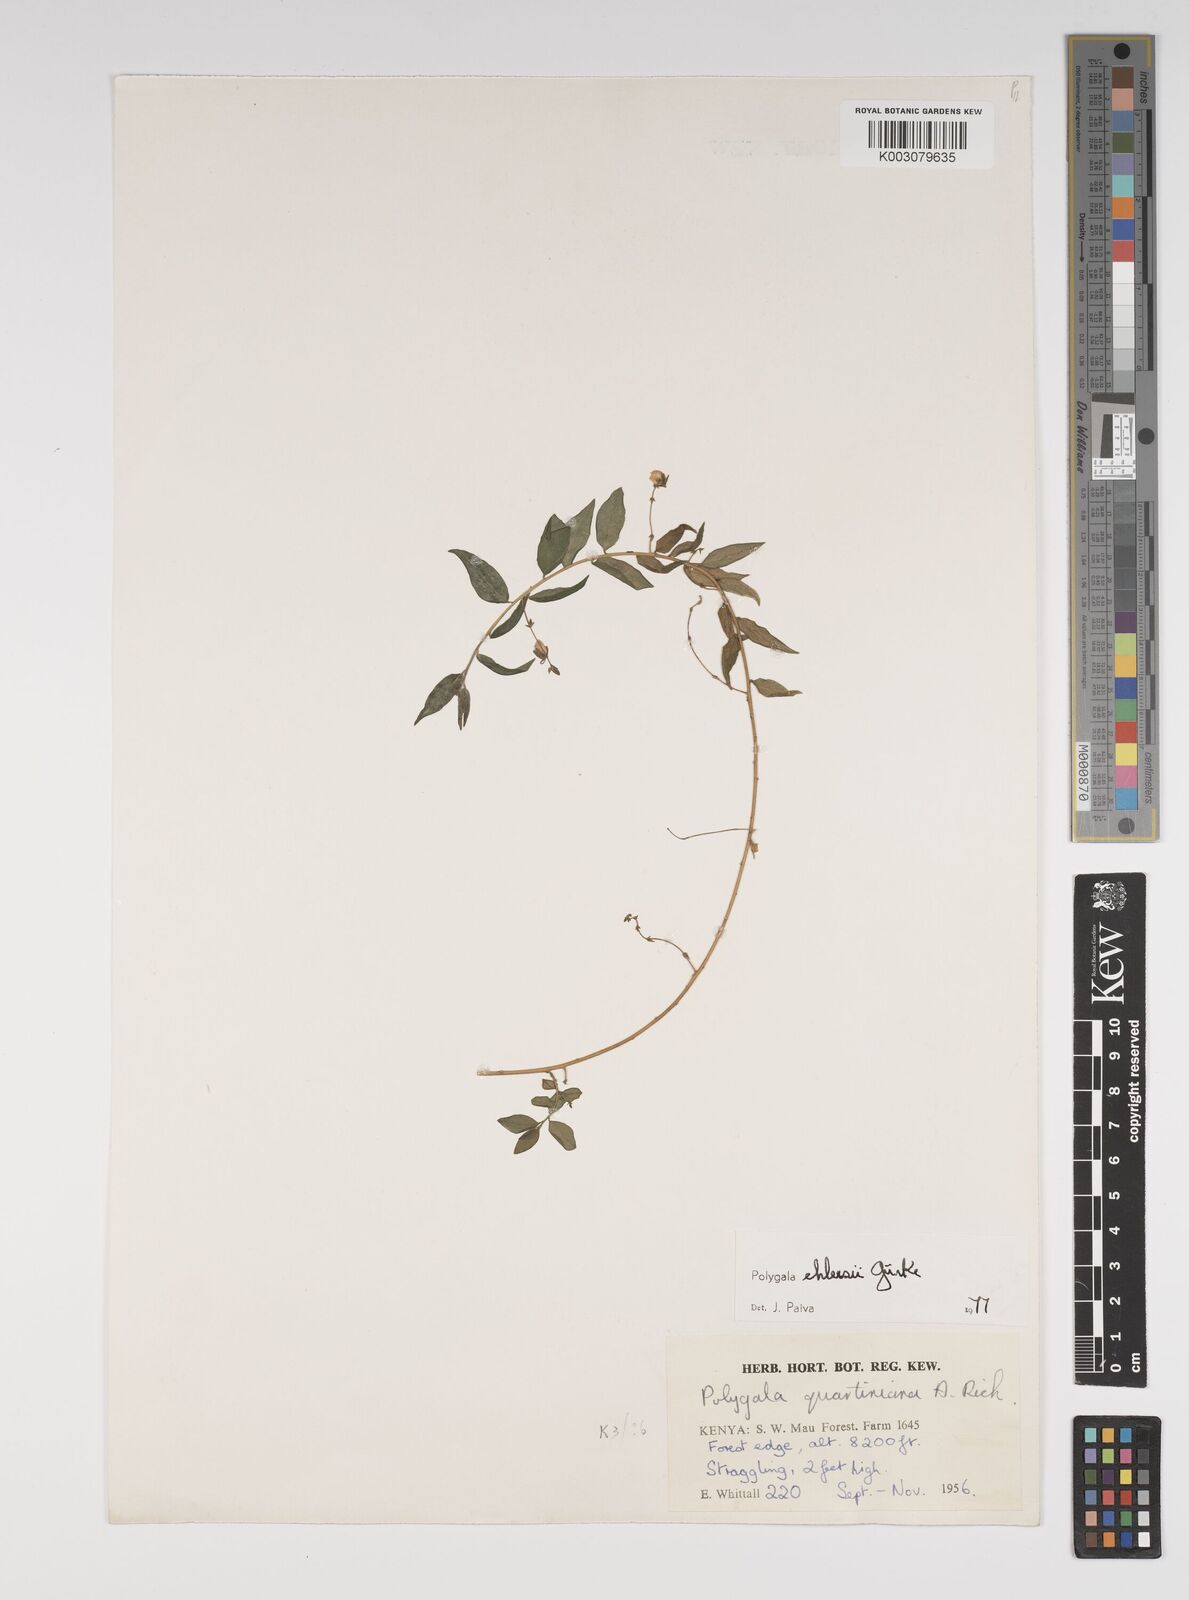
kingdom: Plantae
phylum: Tracheophyta
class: Magnoliopsida
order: Fabales
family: Polygalaceae
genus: Polygala
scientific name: Polygala ehlersii
